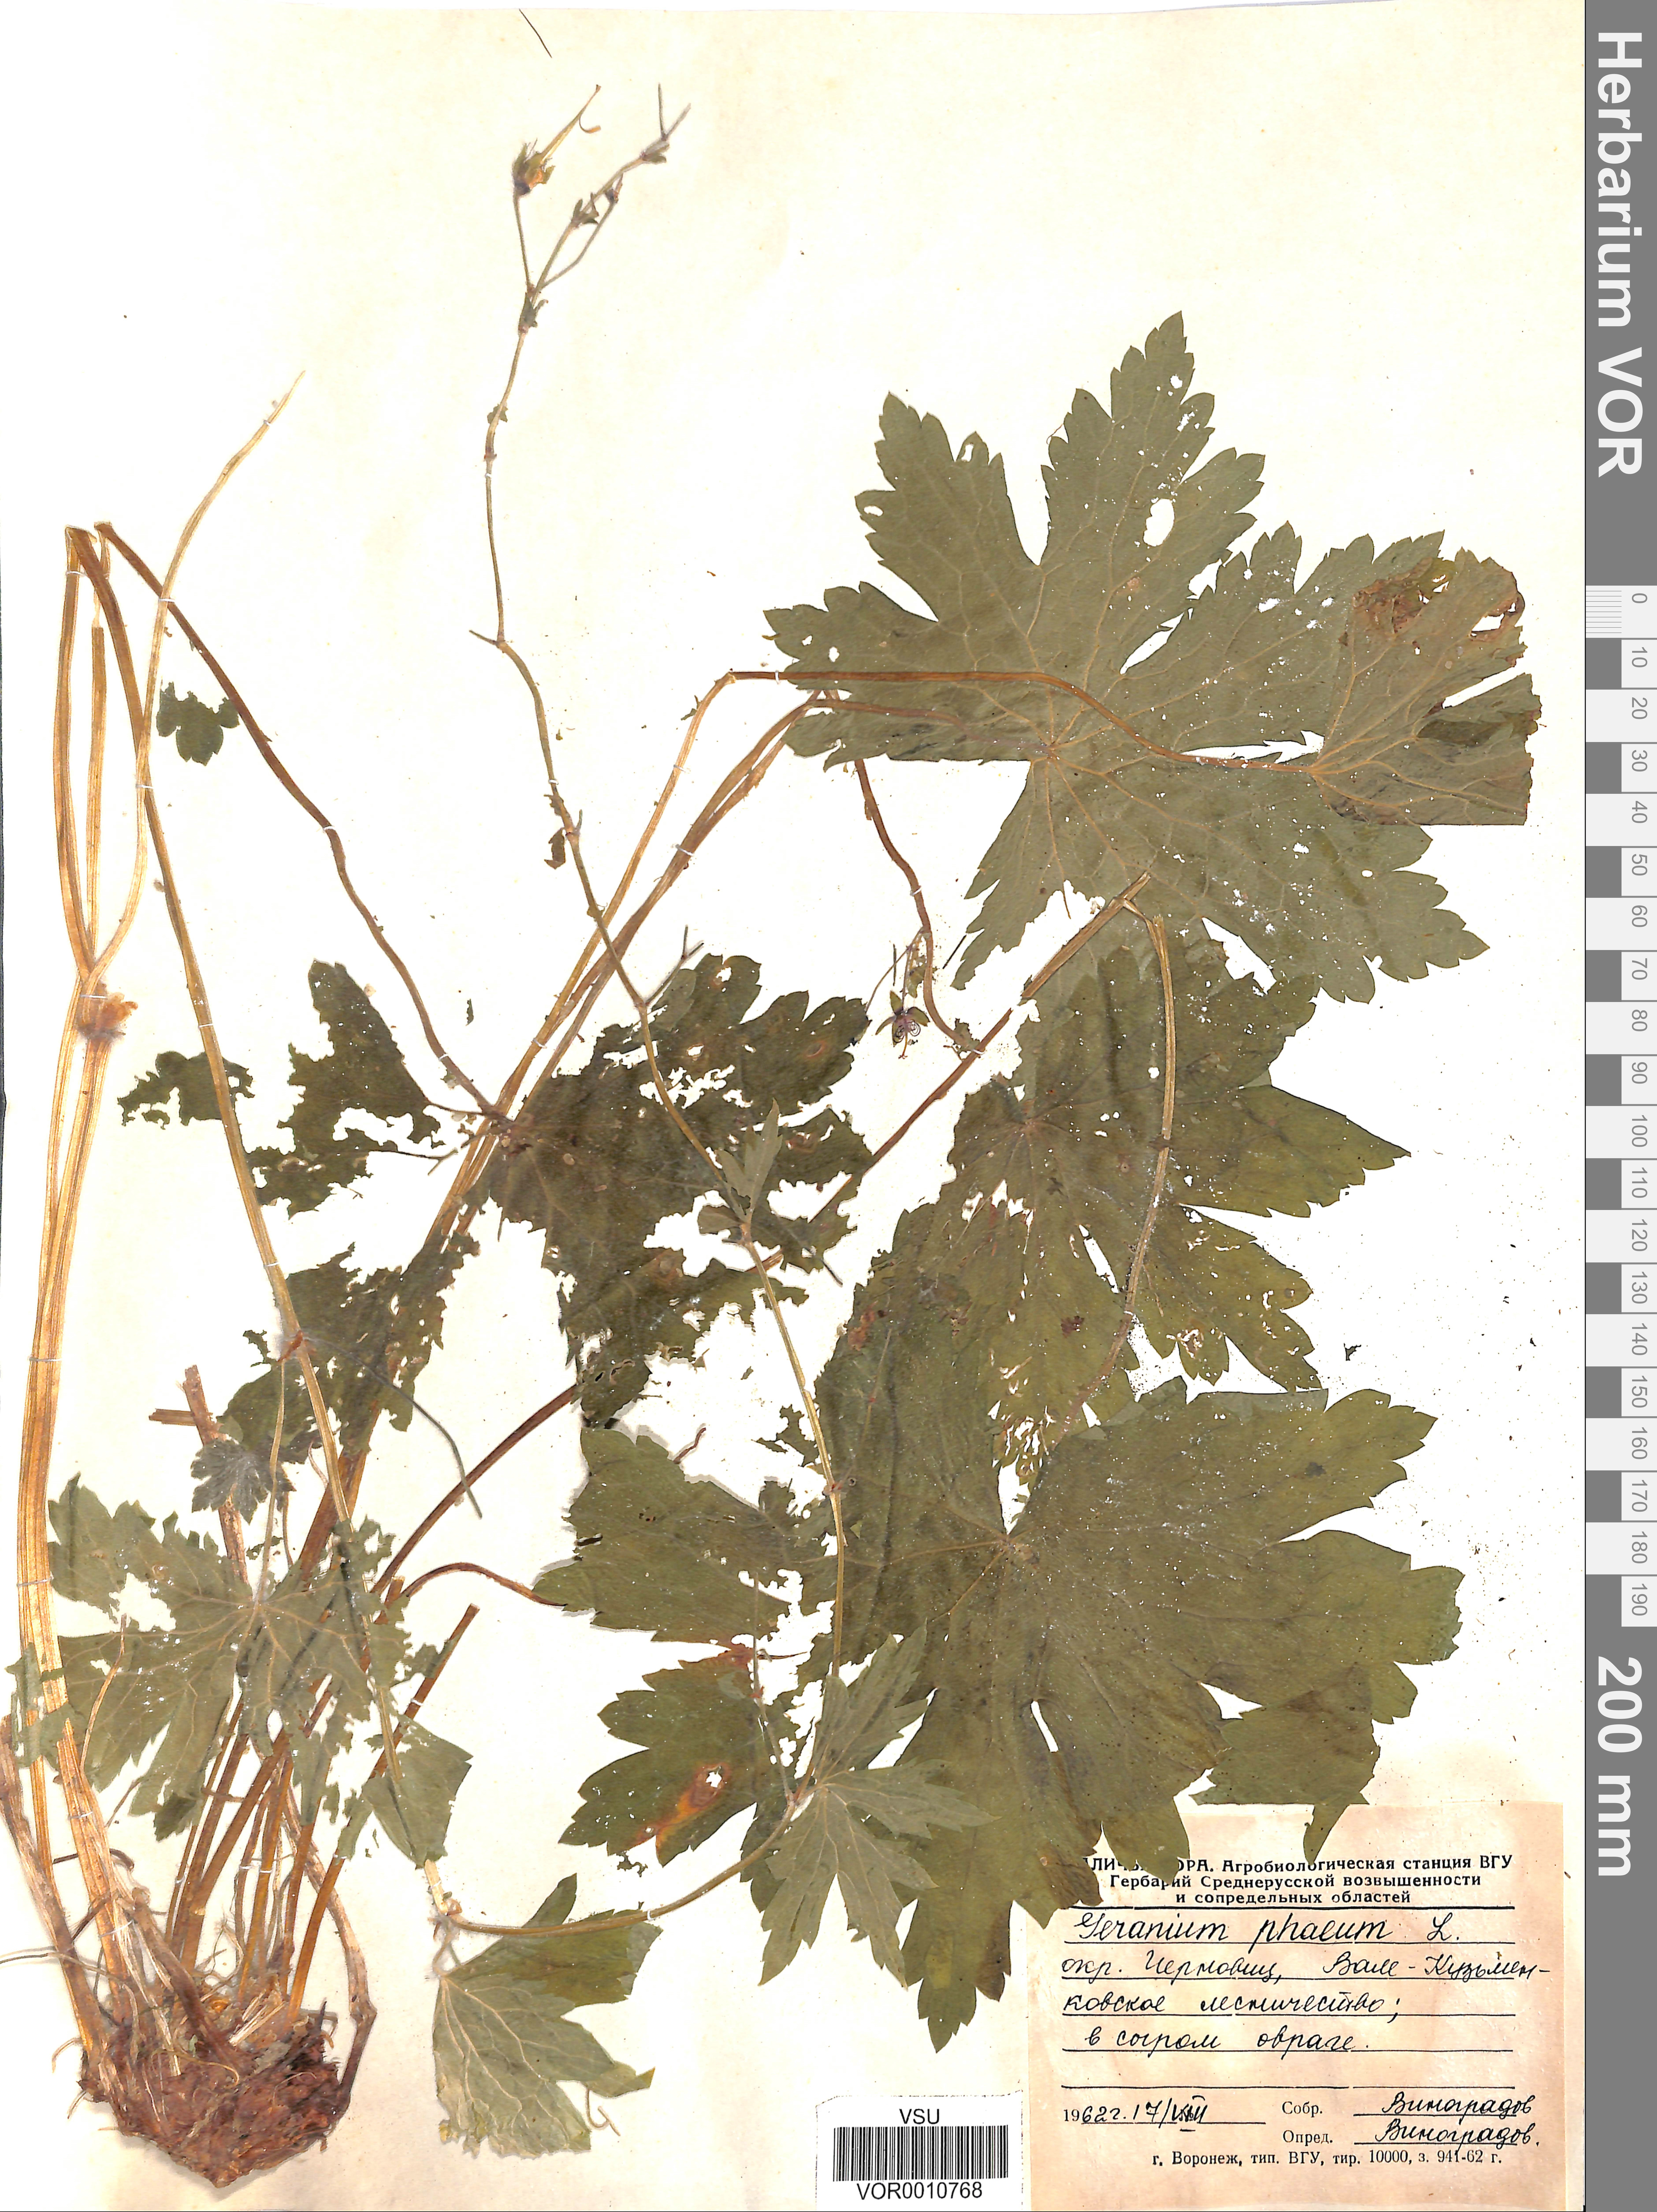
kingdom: Plantae
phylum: Tracheophyta
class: Magnoliopsida
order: Geraniales
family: Geraniaceae
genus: Geranium
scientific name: Geranium phaeum
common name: Dusky crane's-bill
